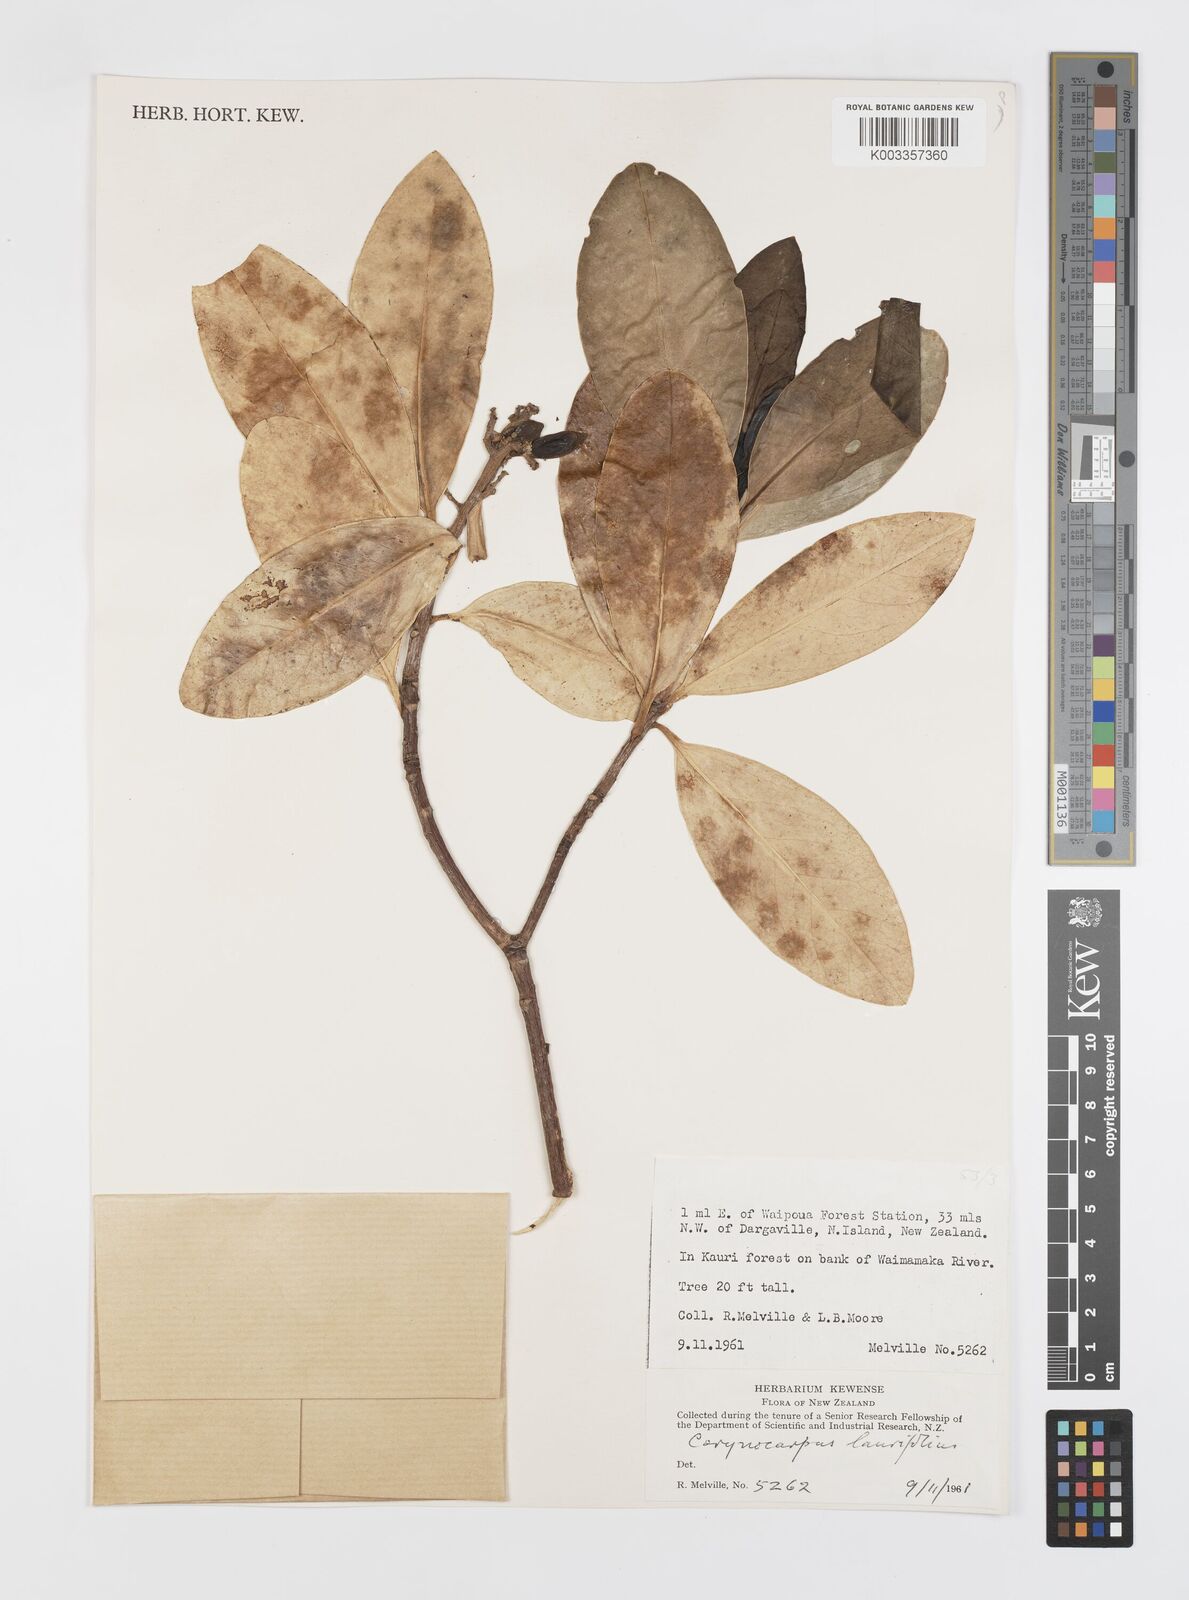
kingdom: Plantae
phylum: Tracheophyta
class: Magnoliopsida
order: Cucurbitales
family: Corynocarpaceae
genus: Corynocarpus
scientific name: Corynocarpus
